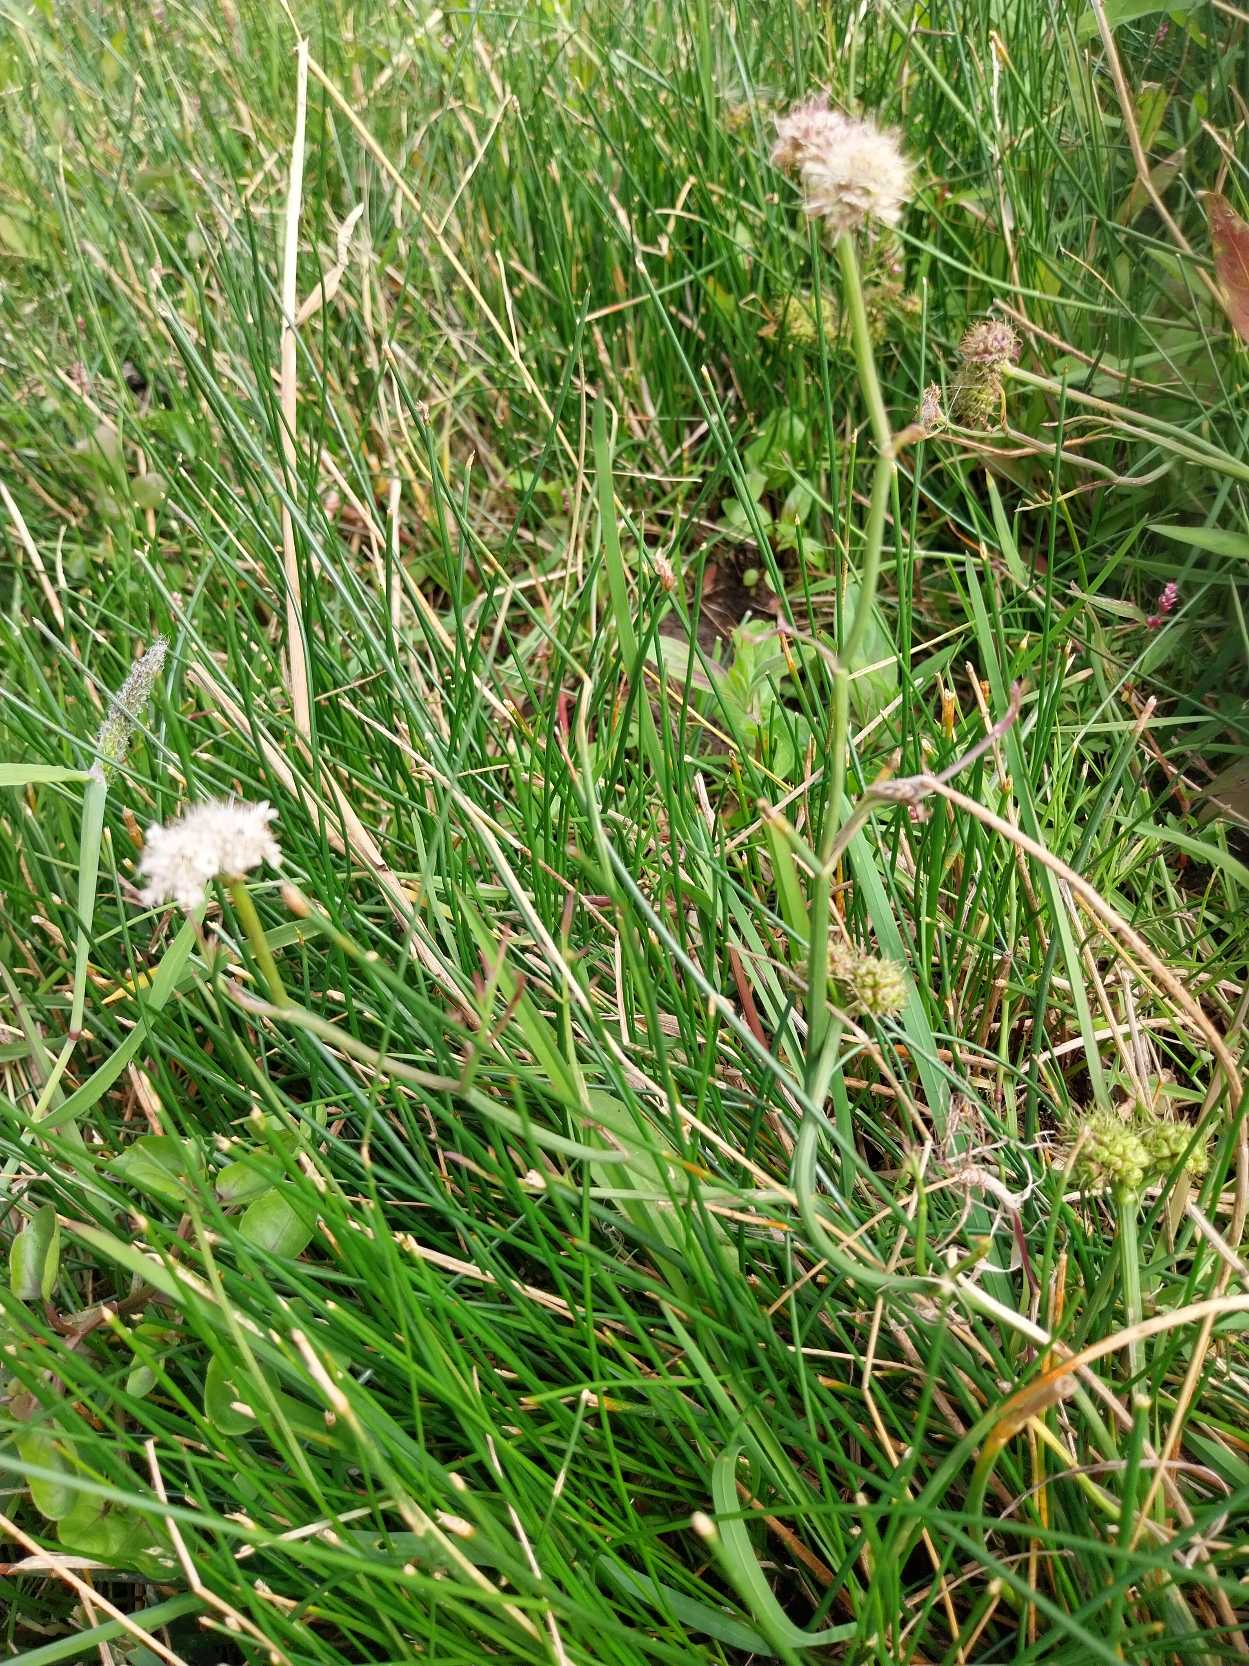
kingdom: Plantae
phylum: Tracheophyta
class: Magnoliopsida
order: Apiales
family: Apiaceae
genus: Oenanthe
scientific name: Oenanthe fistulosa
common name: Vand-klaseskærm
